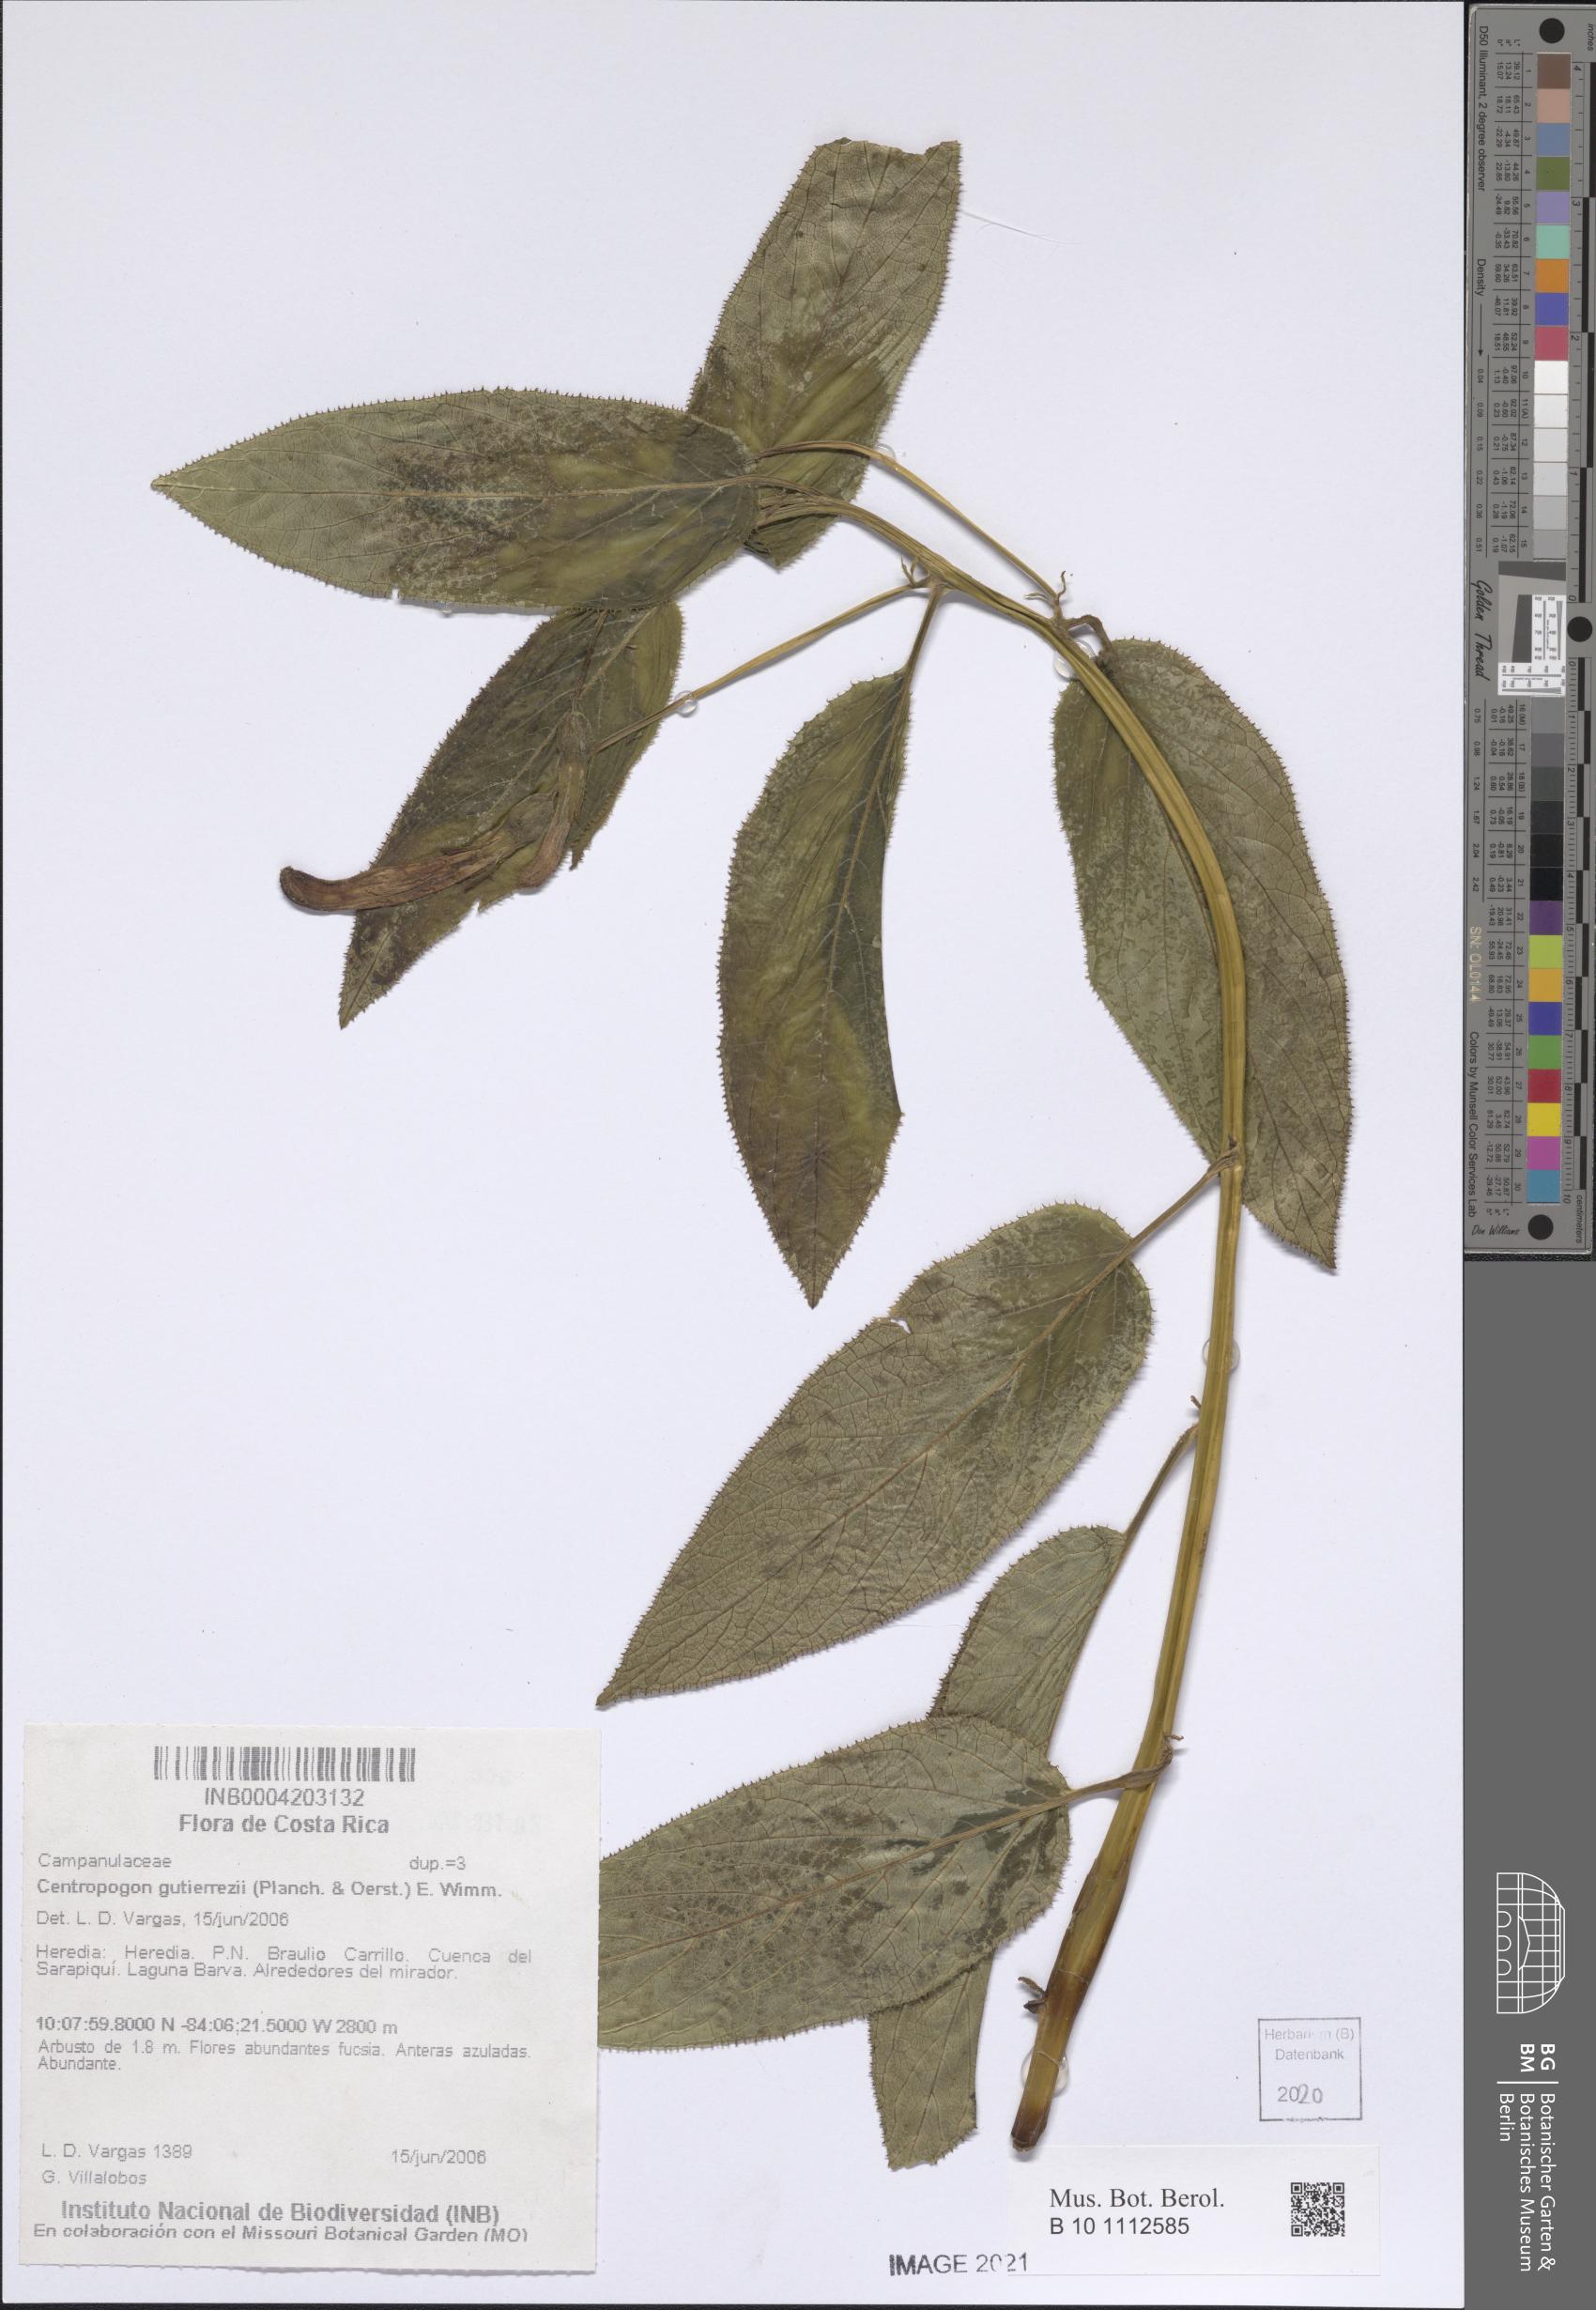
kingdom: Plantae
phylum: Tracheophyta
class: Magnoliopsida
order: Asterales
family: Campanulaceae
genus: Centropogon
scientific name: Centropogon gutierrezii
